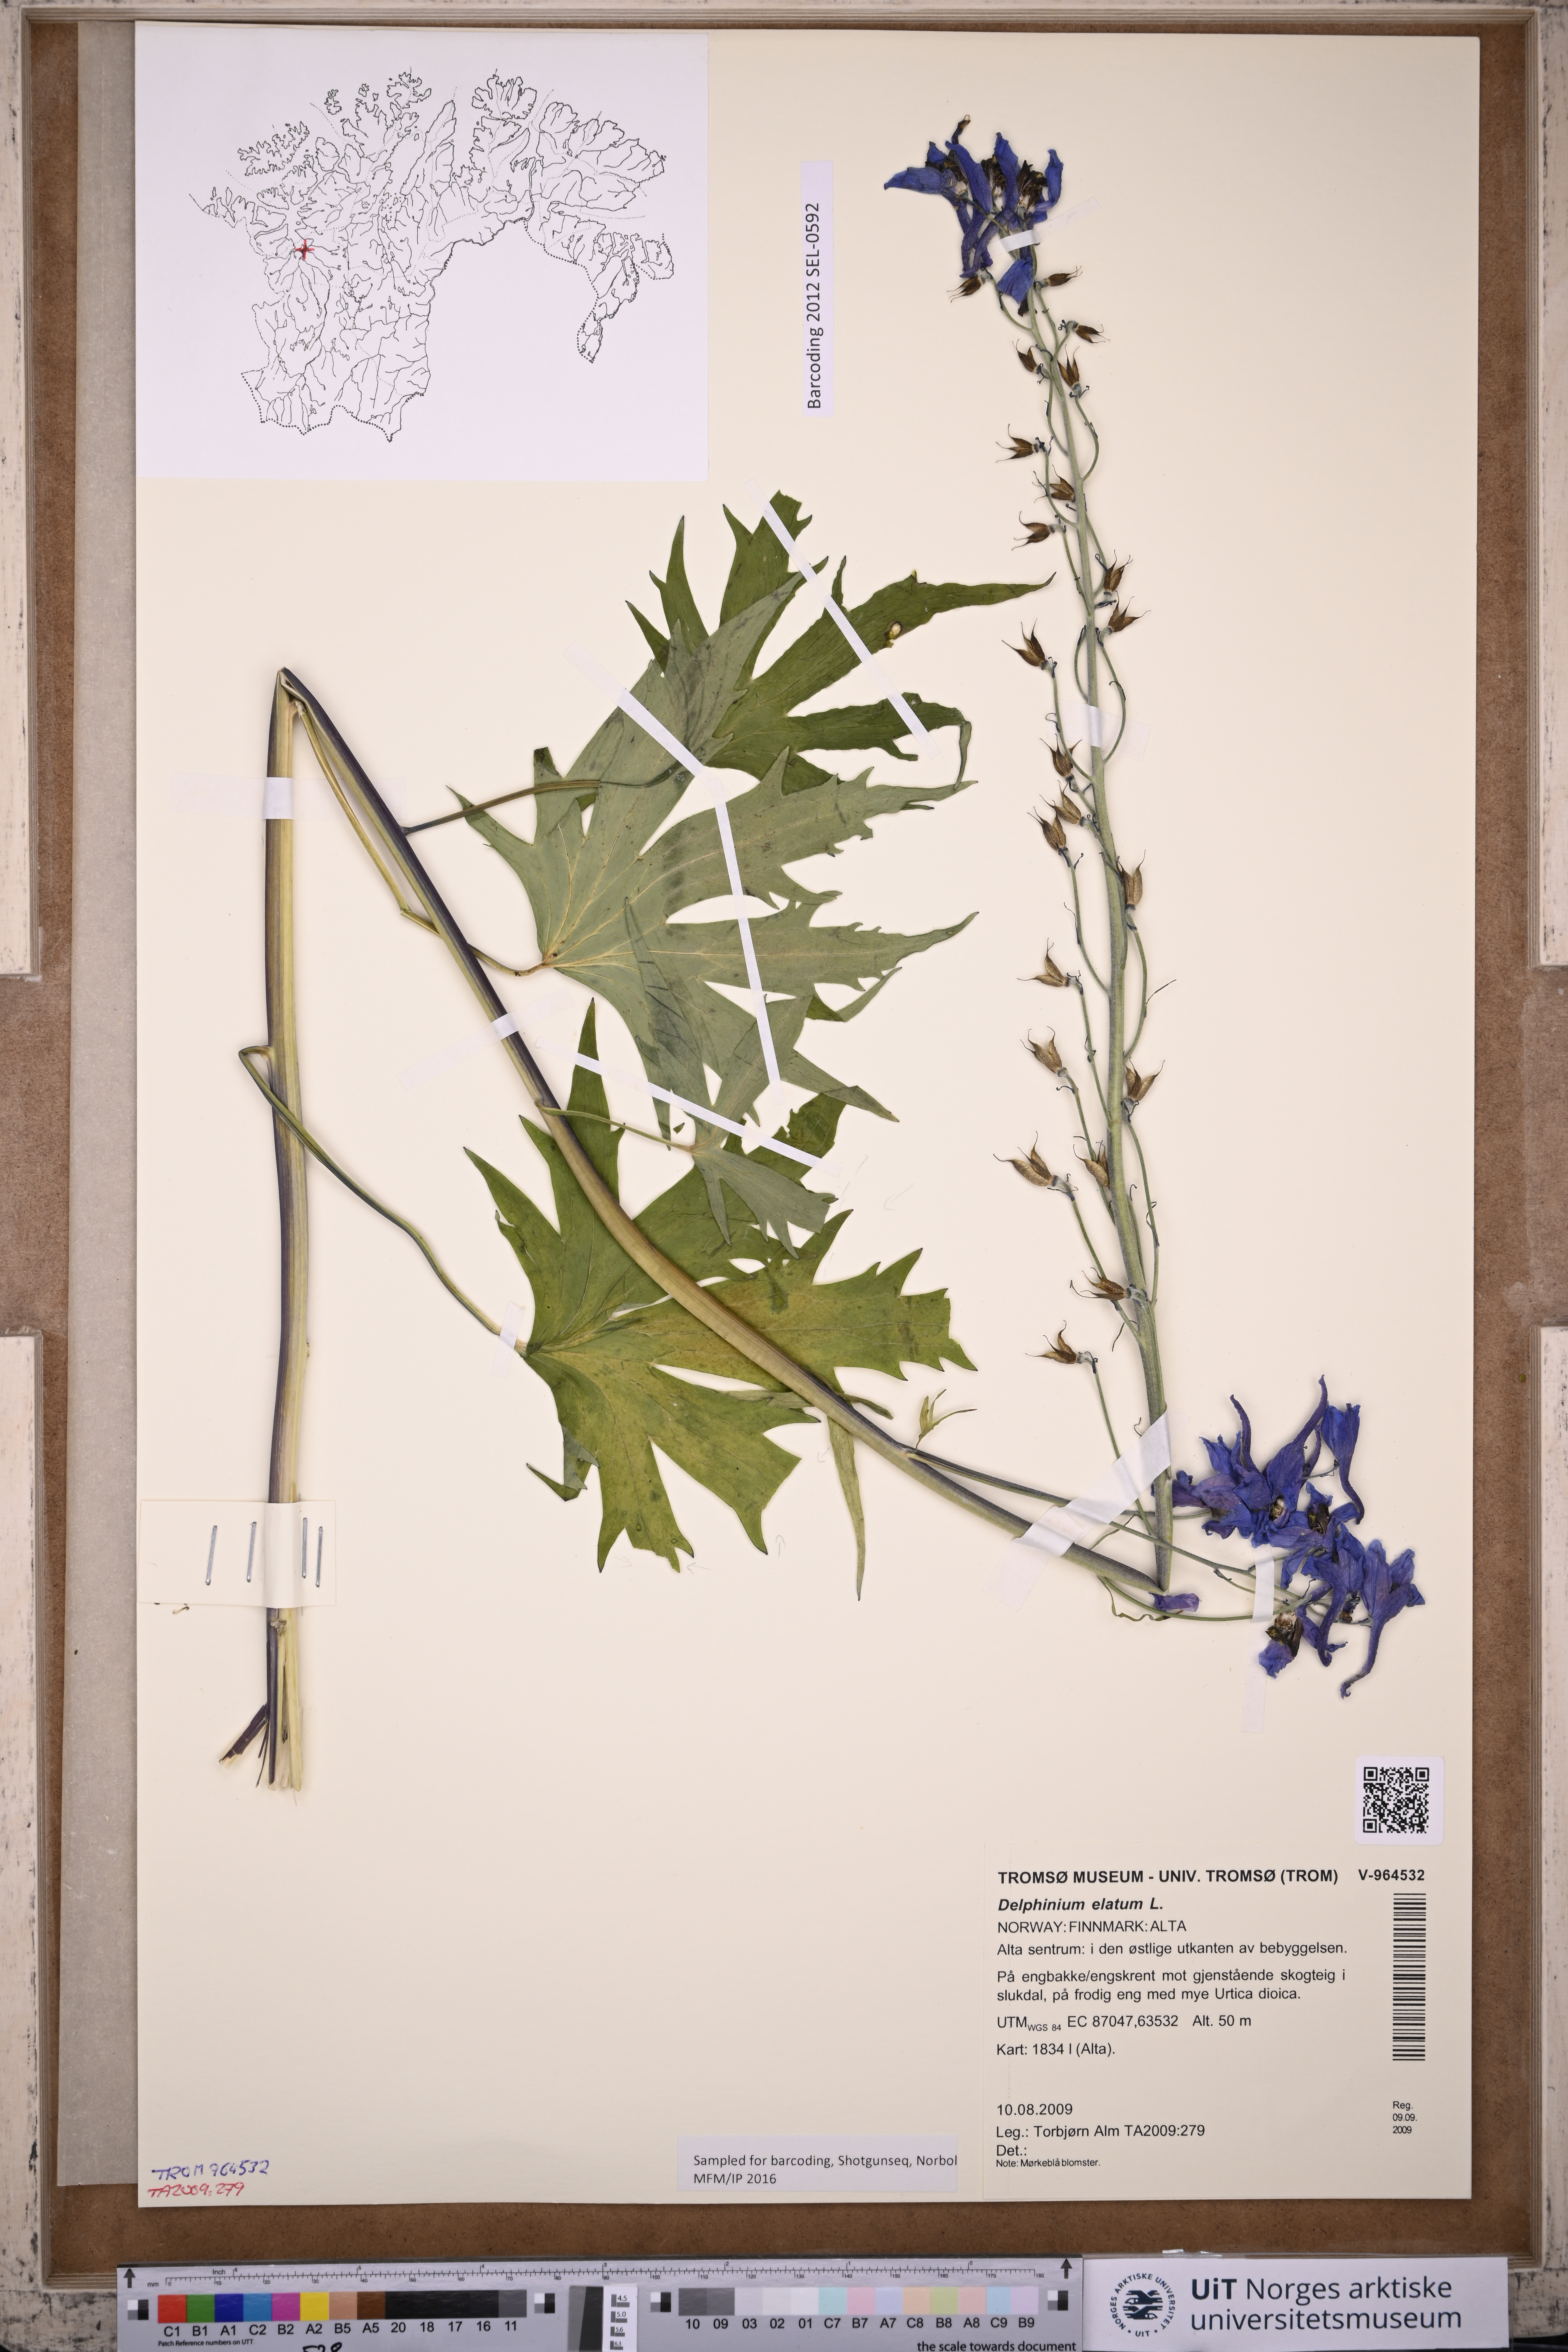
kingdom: Plantae
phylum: Tracheophyta
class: Magnoliopsida
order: Ranunculales
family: Ranunculaceae
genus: Delphinium
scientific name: Delphinium elatum
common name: Candle larkspur
